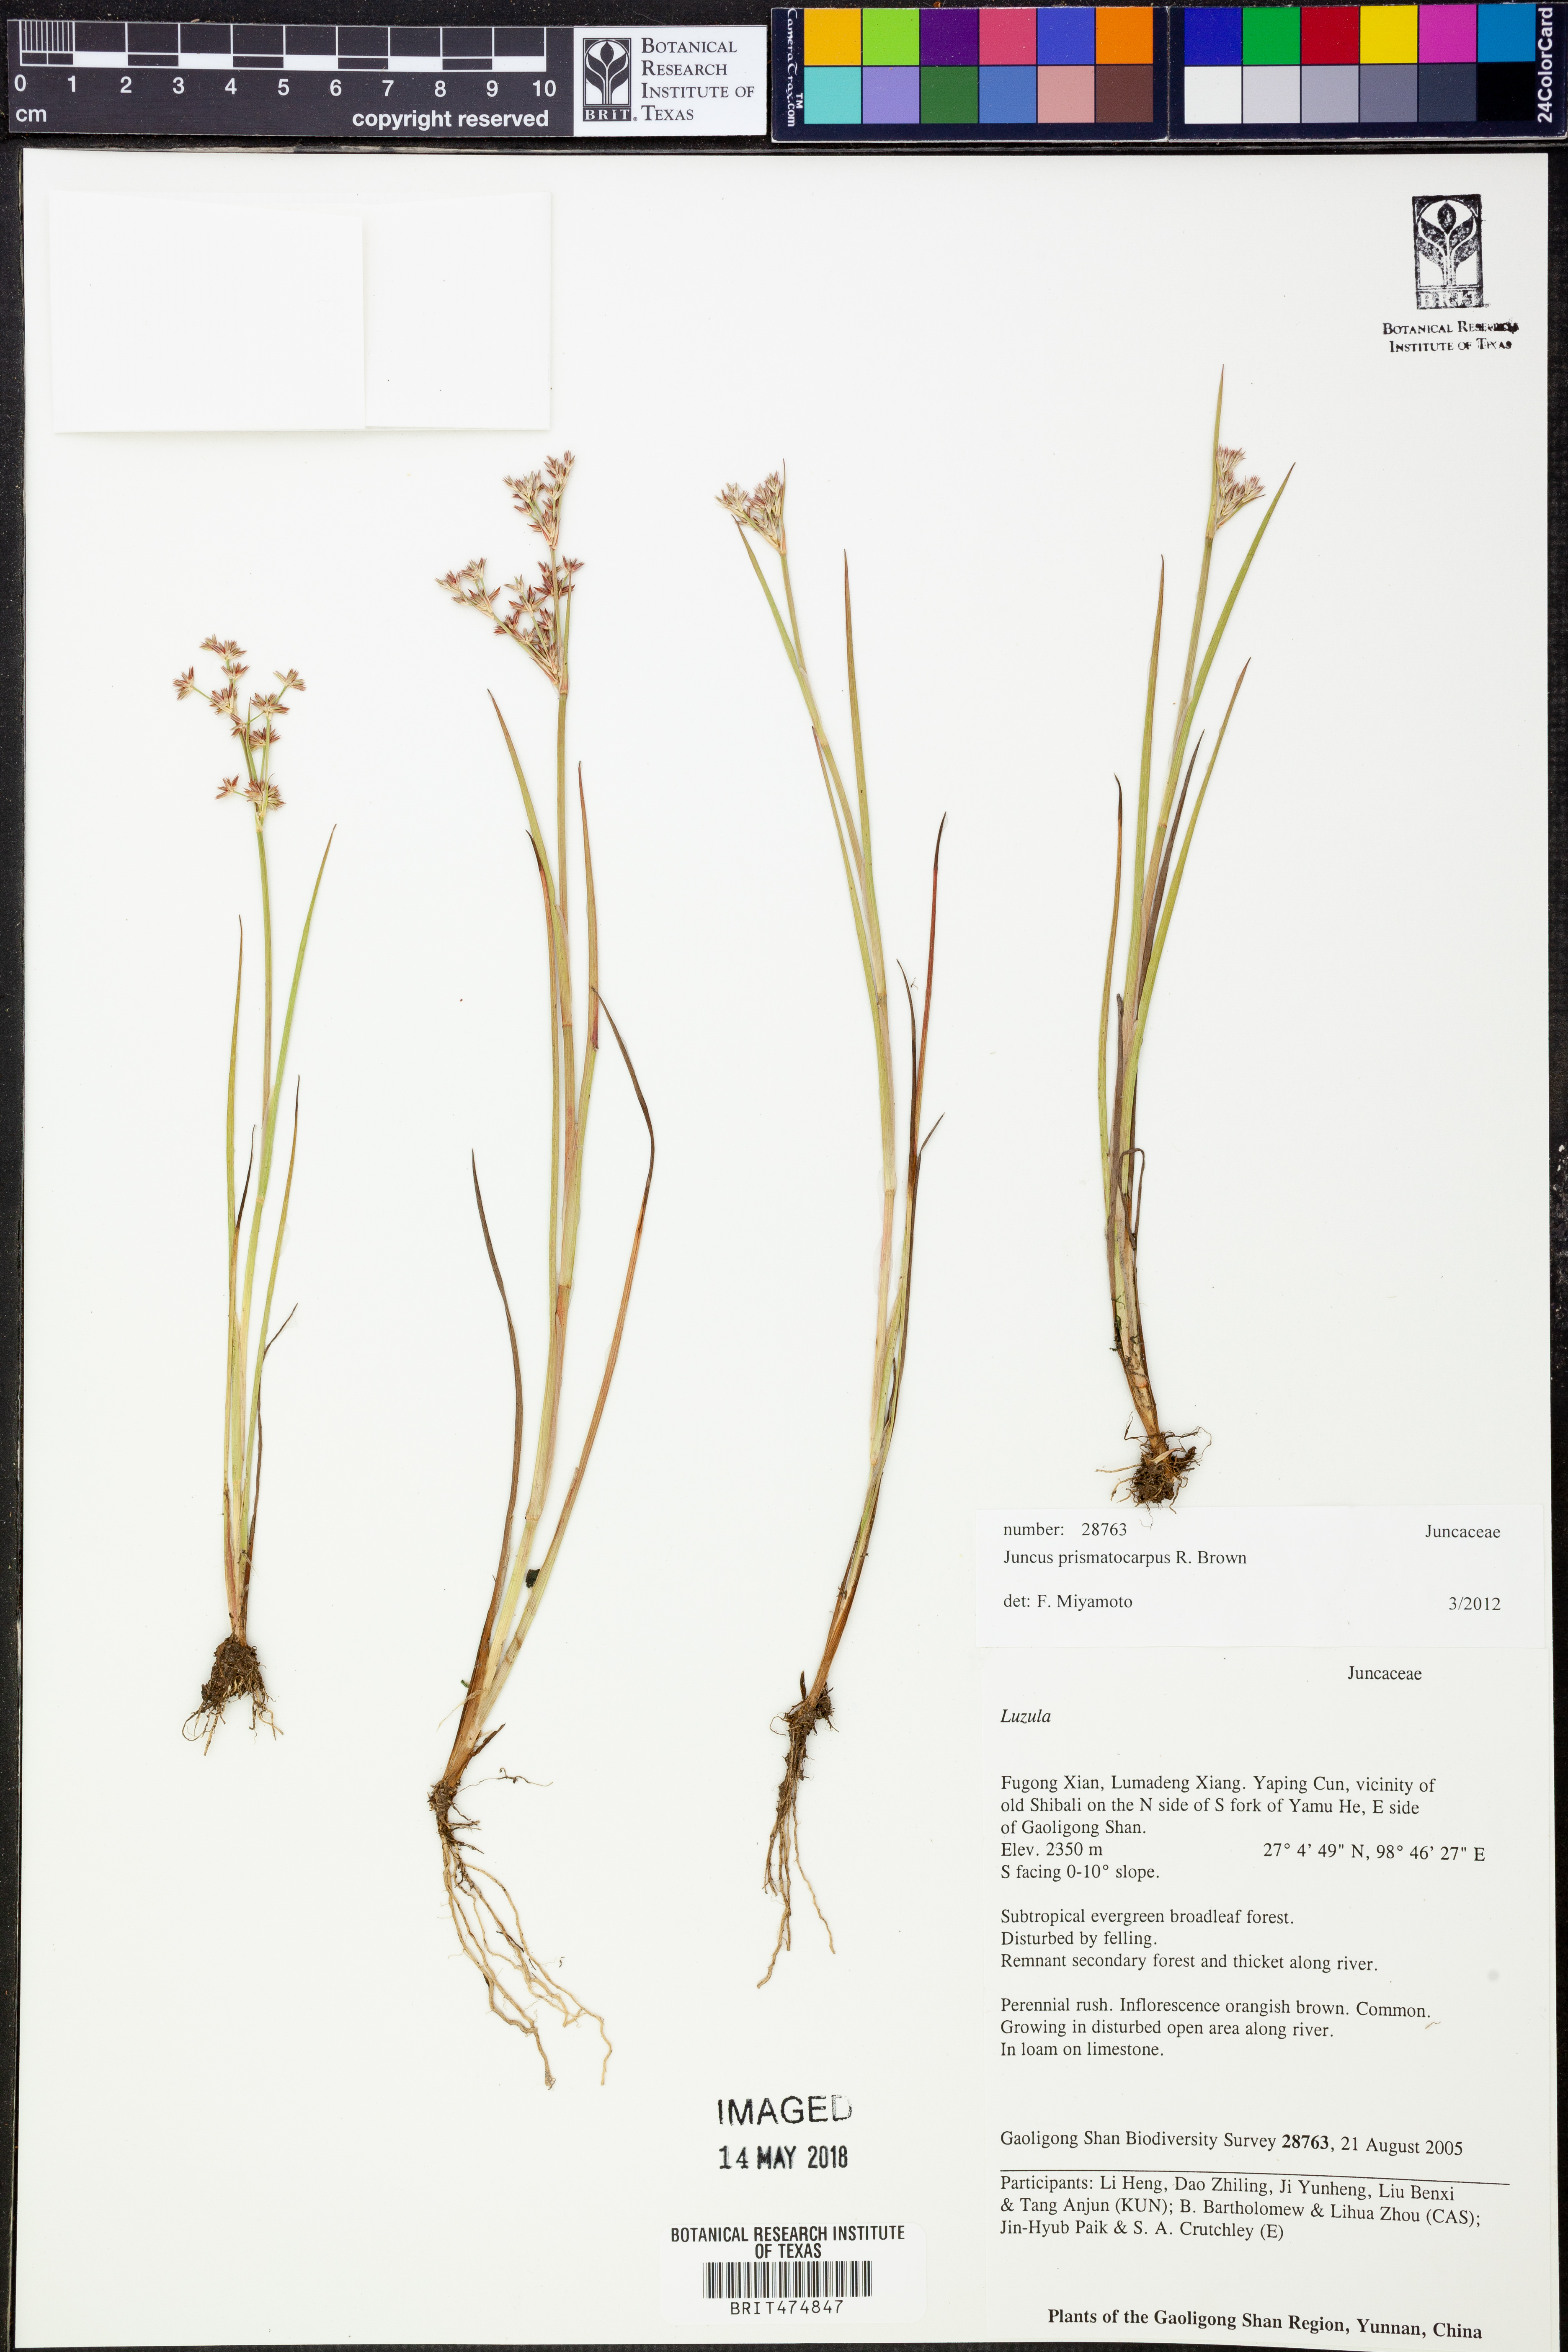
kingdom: Plantae
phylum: Tracheophyta
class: Liliopsida
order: Poales
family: Juncaceae
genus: Juncus
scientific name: Juncus prismatocarpus
